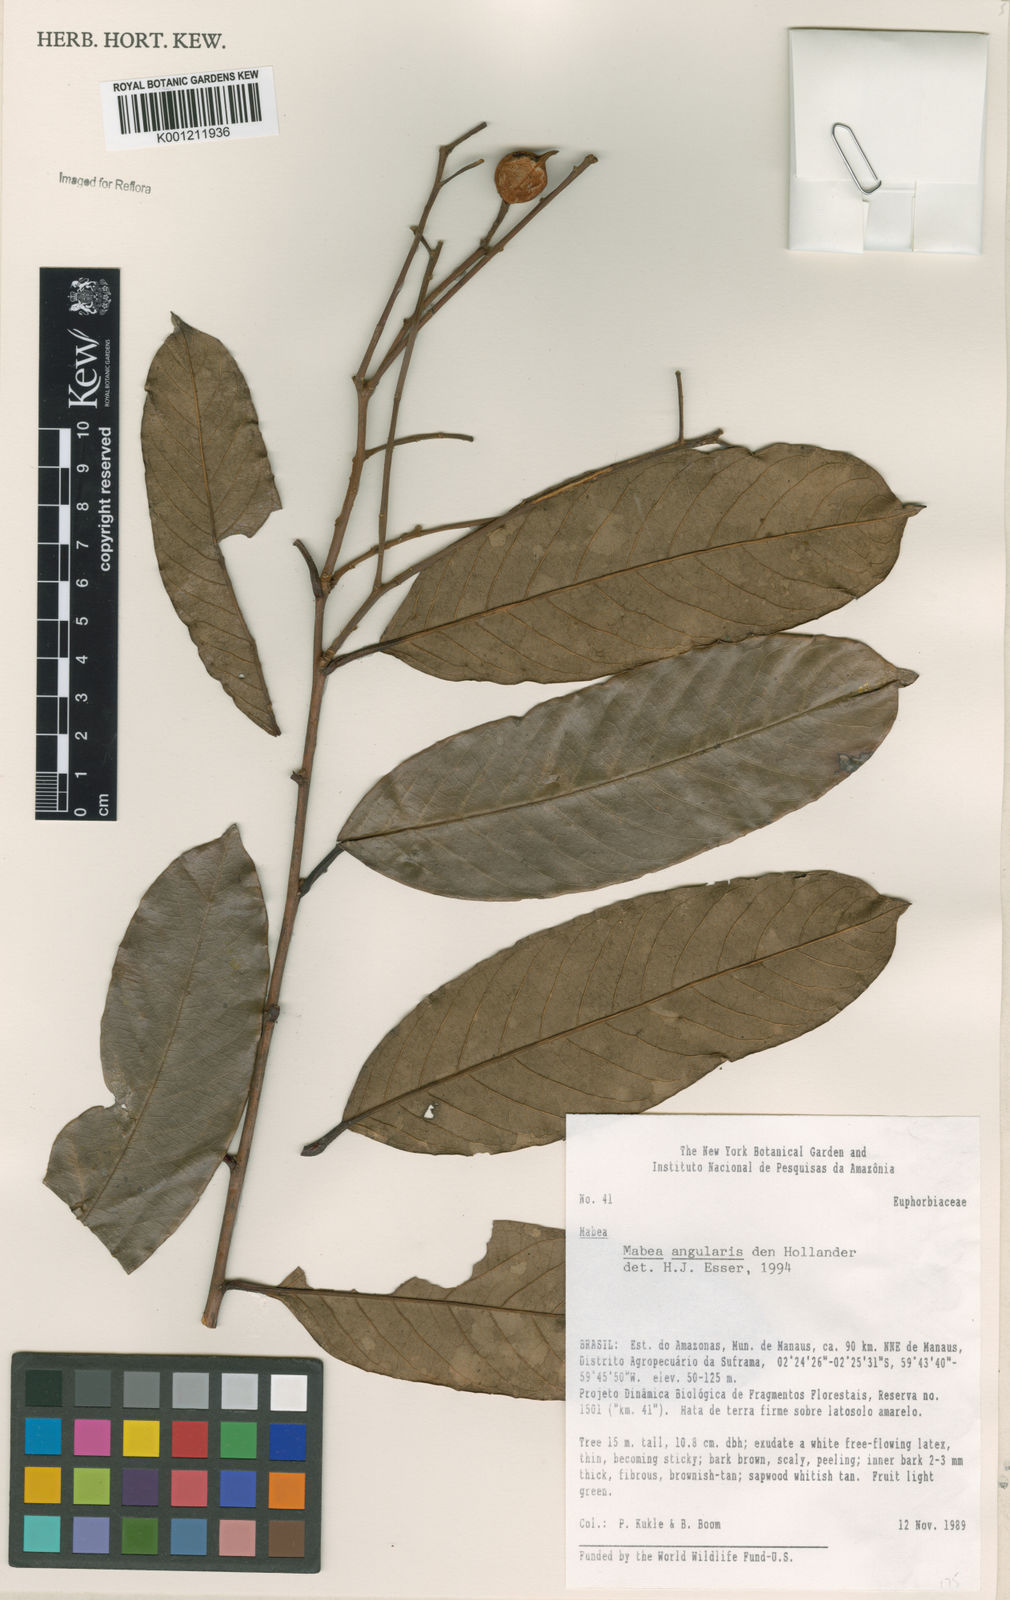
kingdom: Plantae
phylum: Tracheophyta
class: Magnoliopsida
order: Malpighiales
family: Euphorbiaceae
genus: Mabea
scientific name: Mabea angularis
